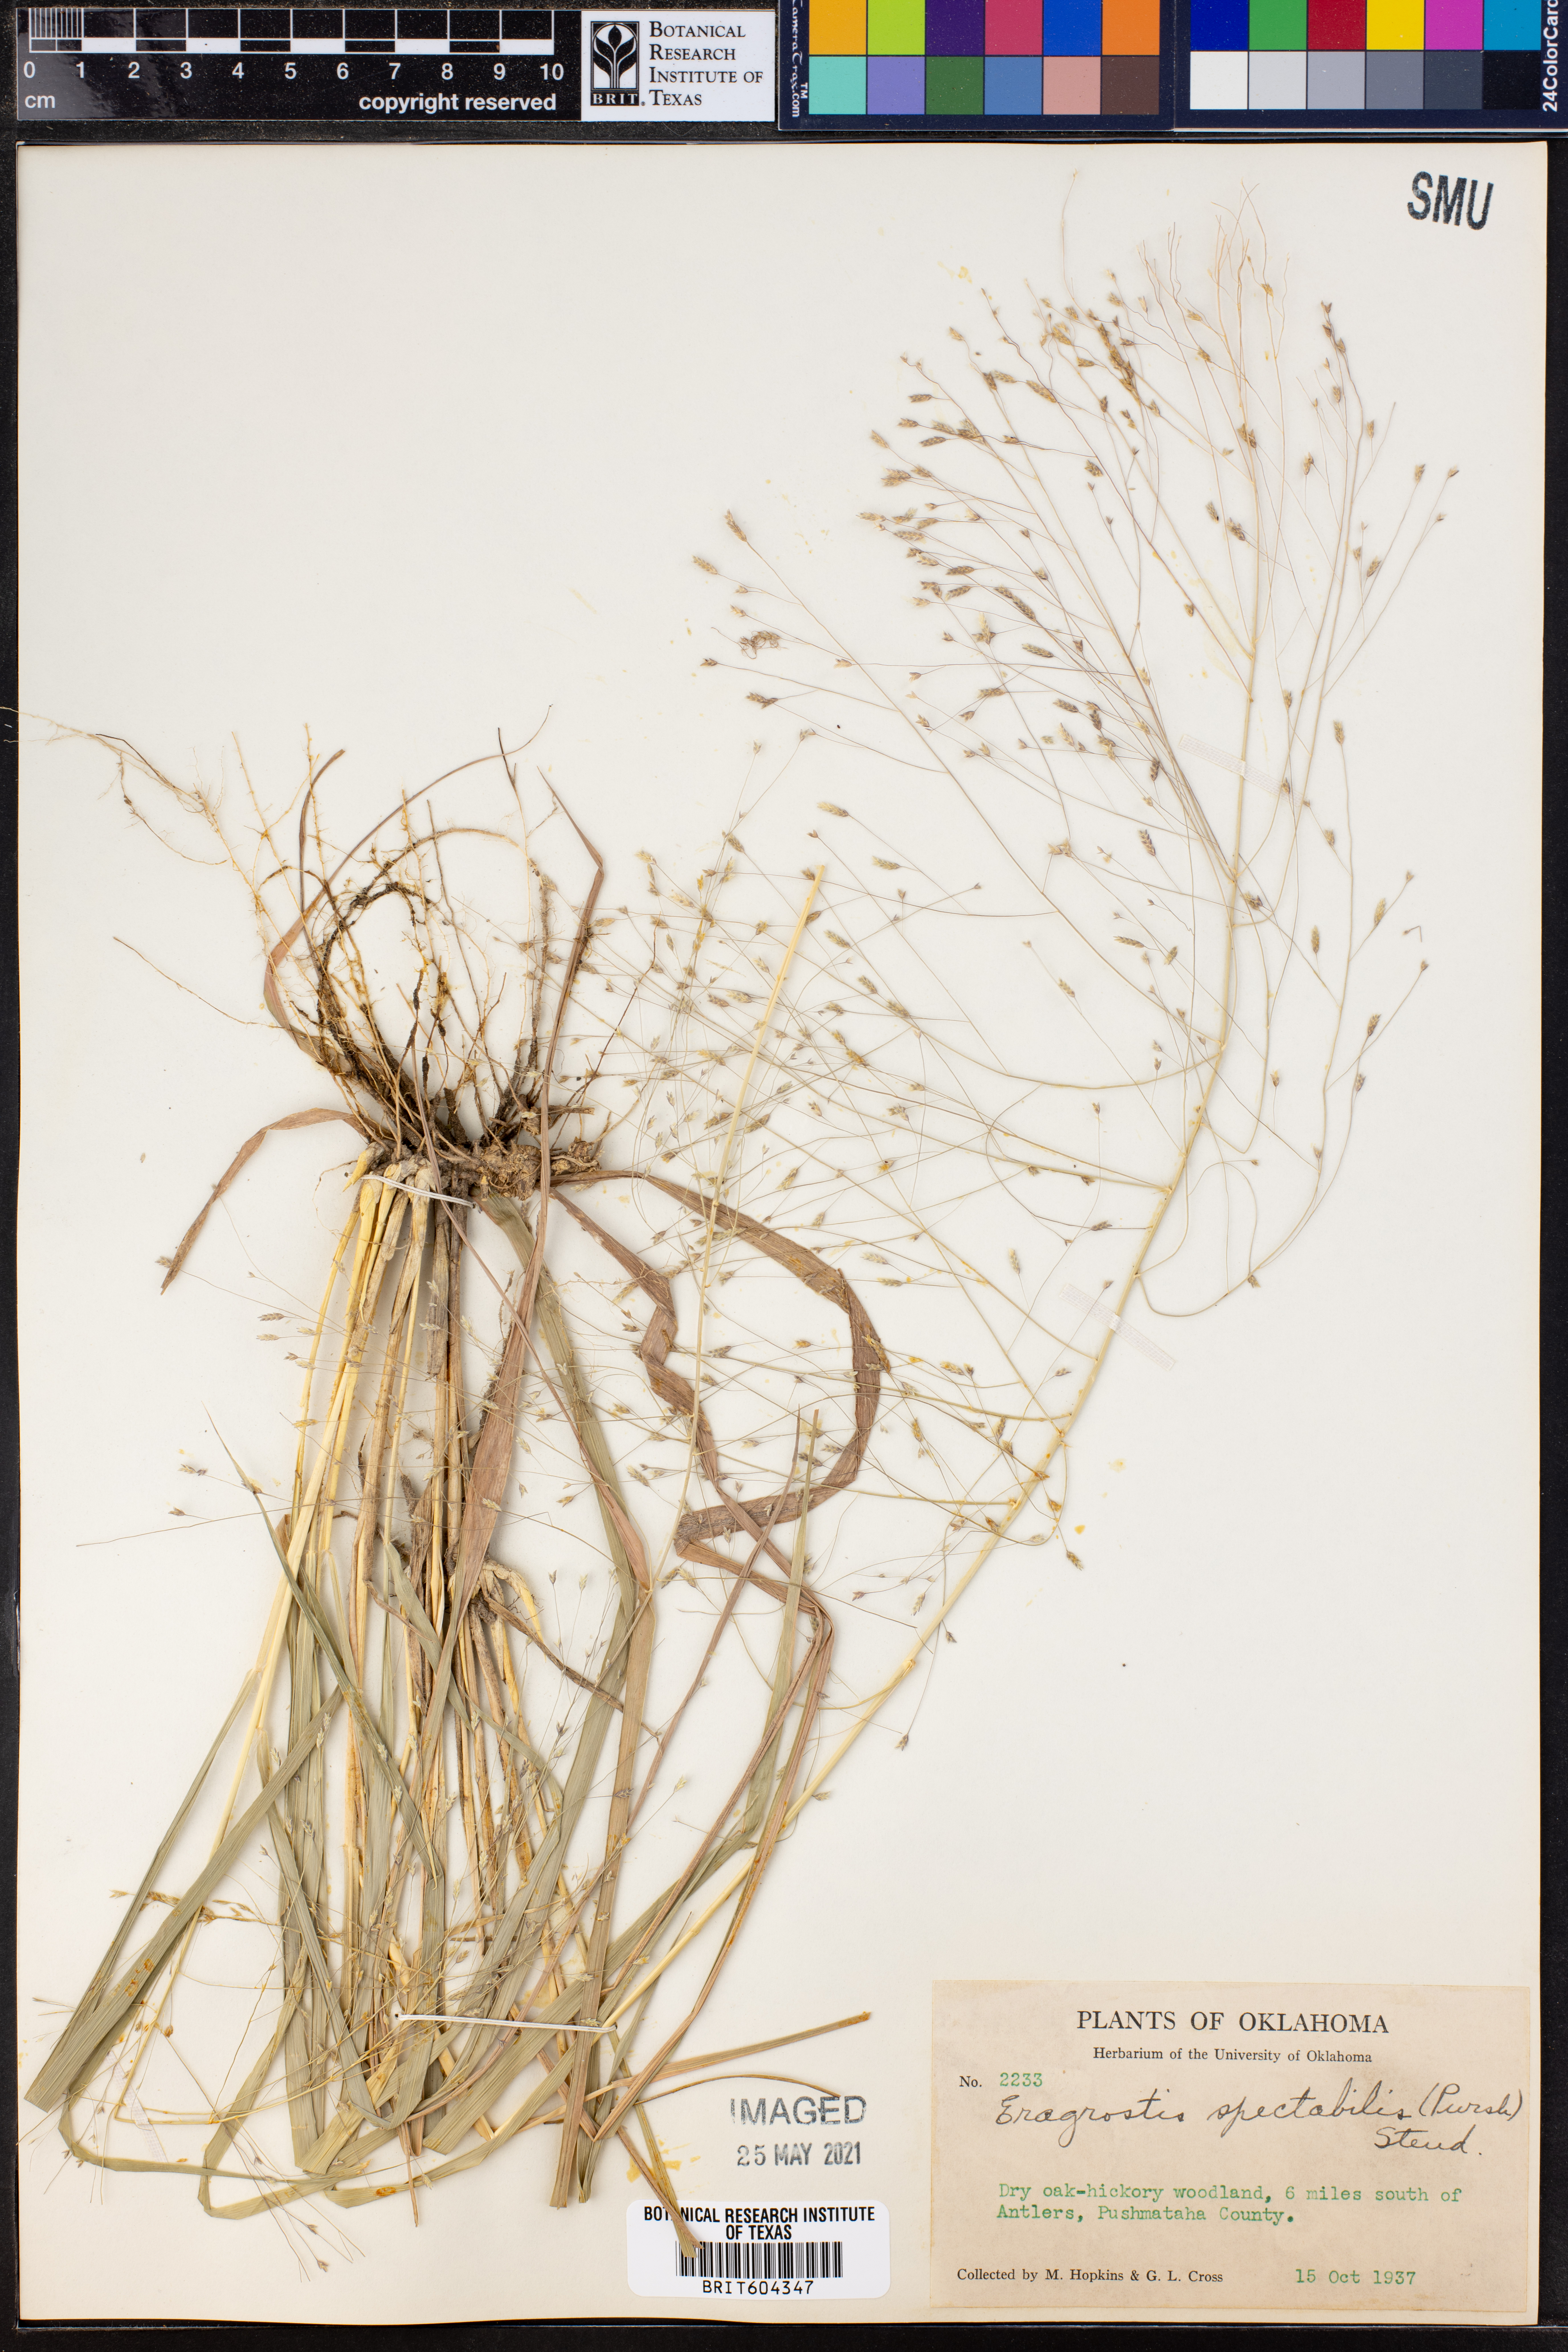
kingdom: Plantae
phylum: Tracheophyta
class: Liliopsida
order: Poales
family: Poaceae
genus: Eragrostis
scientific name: Eragrostis spectabilis
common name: Petticoat-climber
